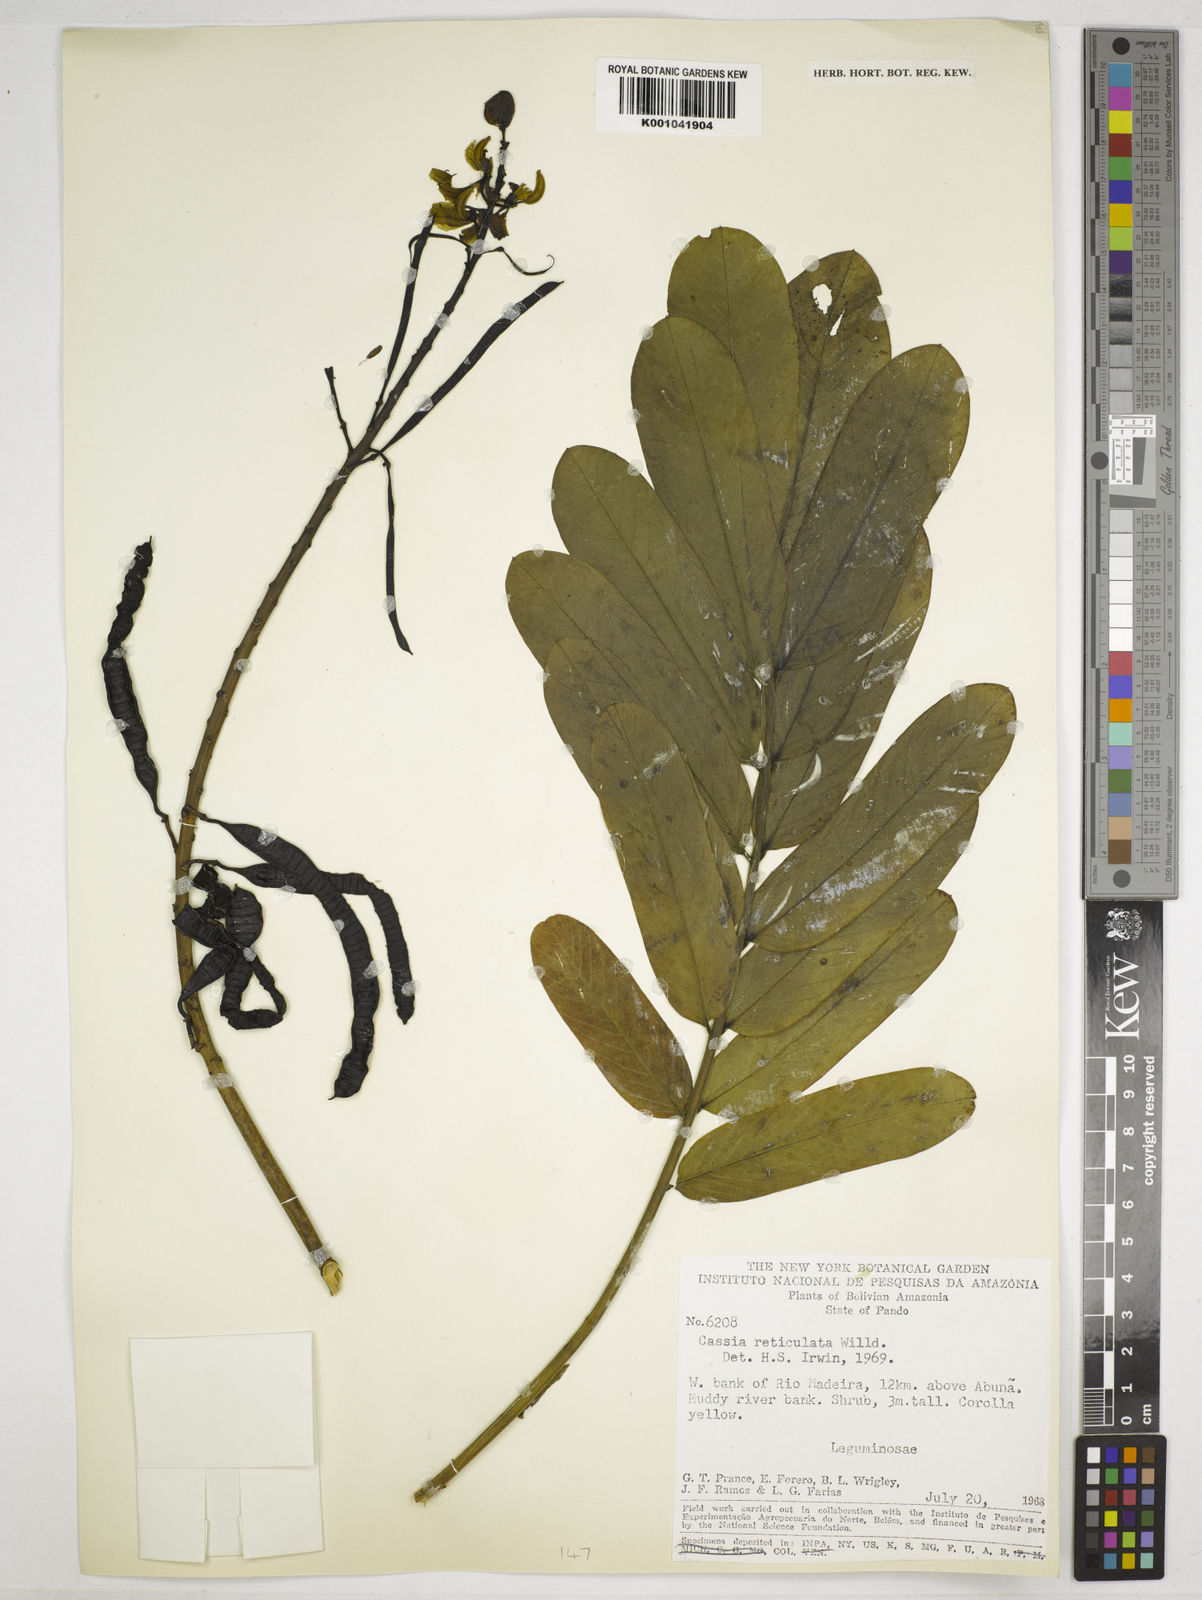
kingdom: Plantae
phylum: Tracheophyta
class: Magnoliopsida
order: Fabales
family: Fabaceae
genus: Senna
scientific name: Senna reticulata
